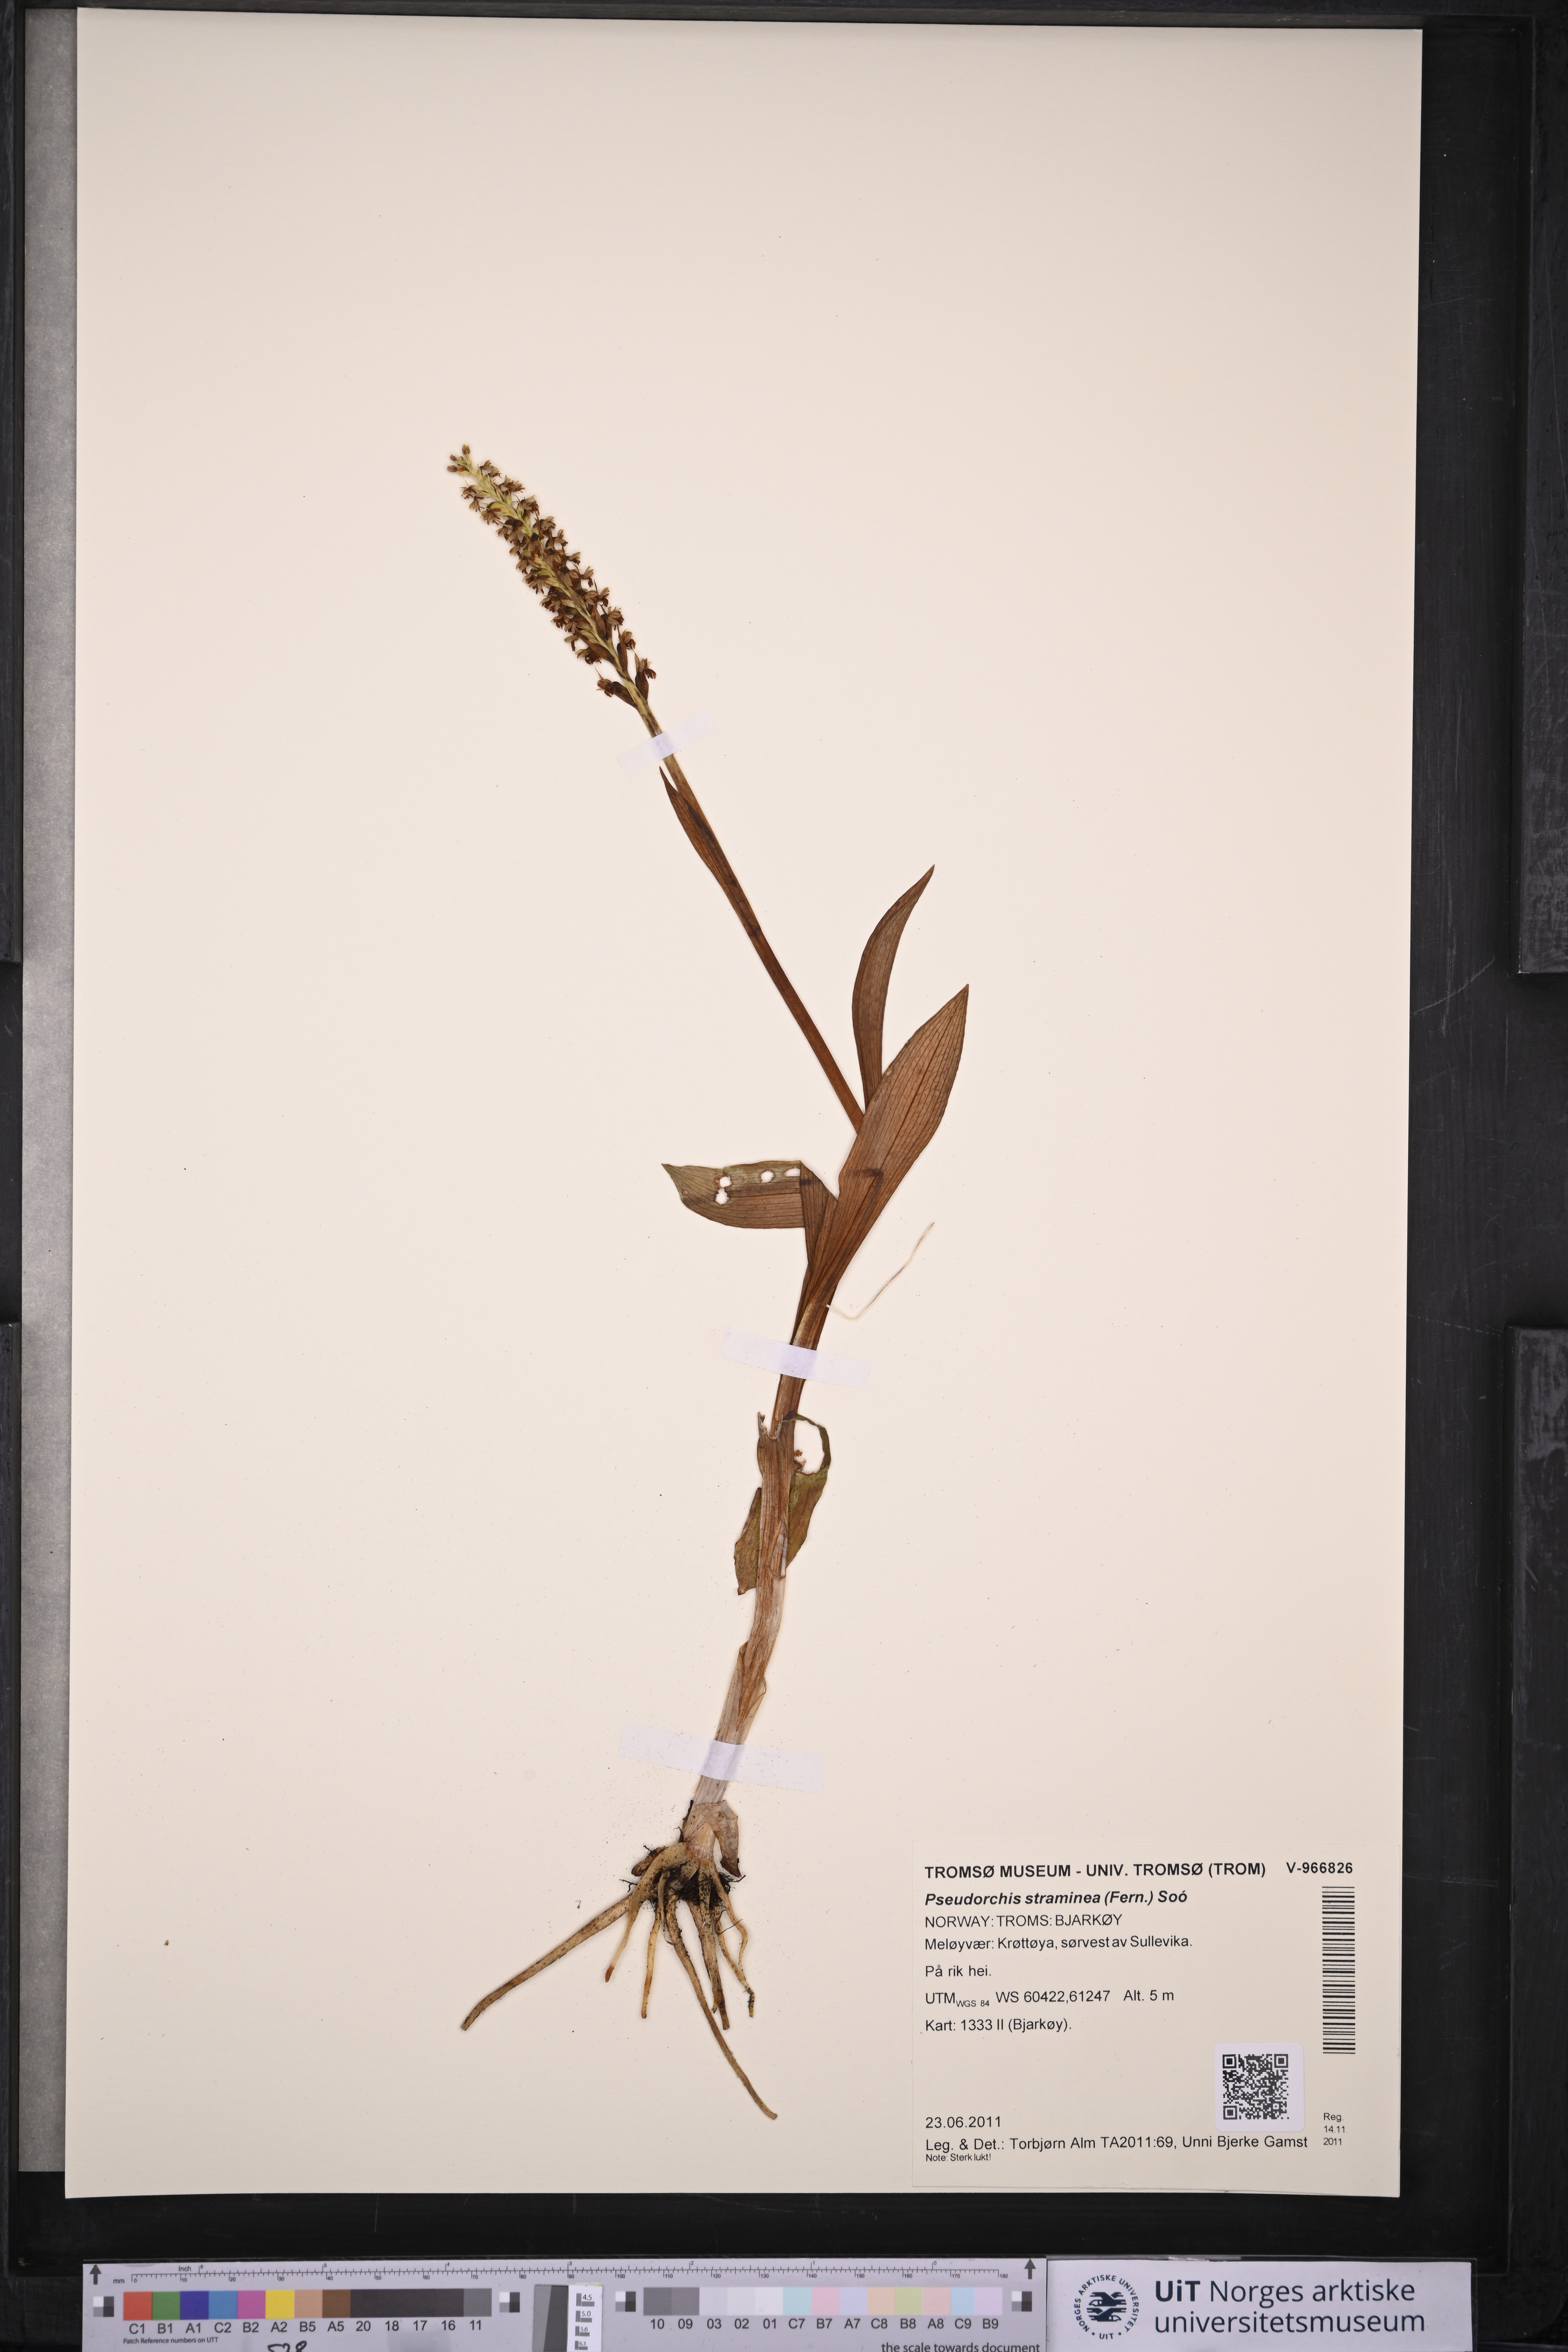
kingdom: Plantae
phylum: Tracheophyta
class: Liliopsida
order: Asparagales
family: Orchidaceae
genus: Pseudorchis
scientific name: Pseudorchis straminea
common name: Vanilla-scented bog orchid
